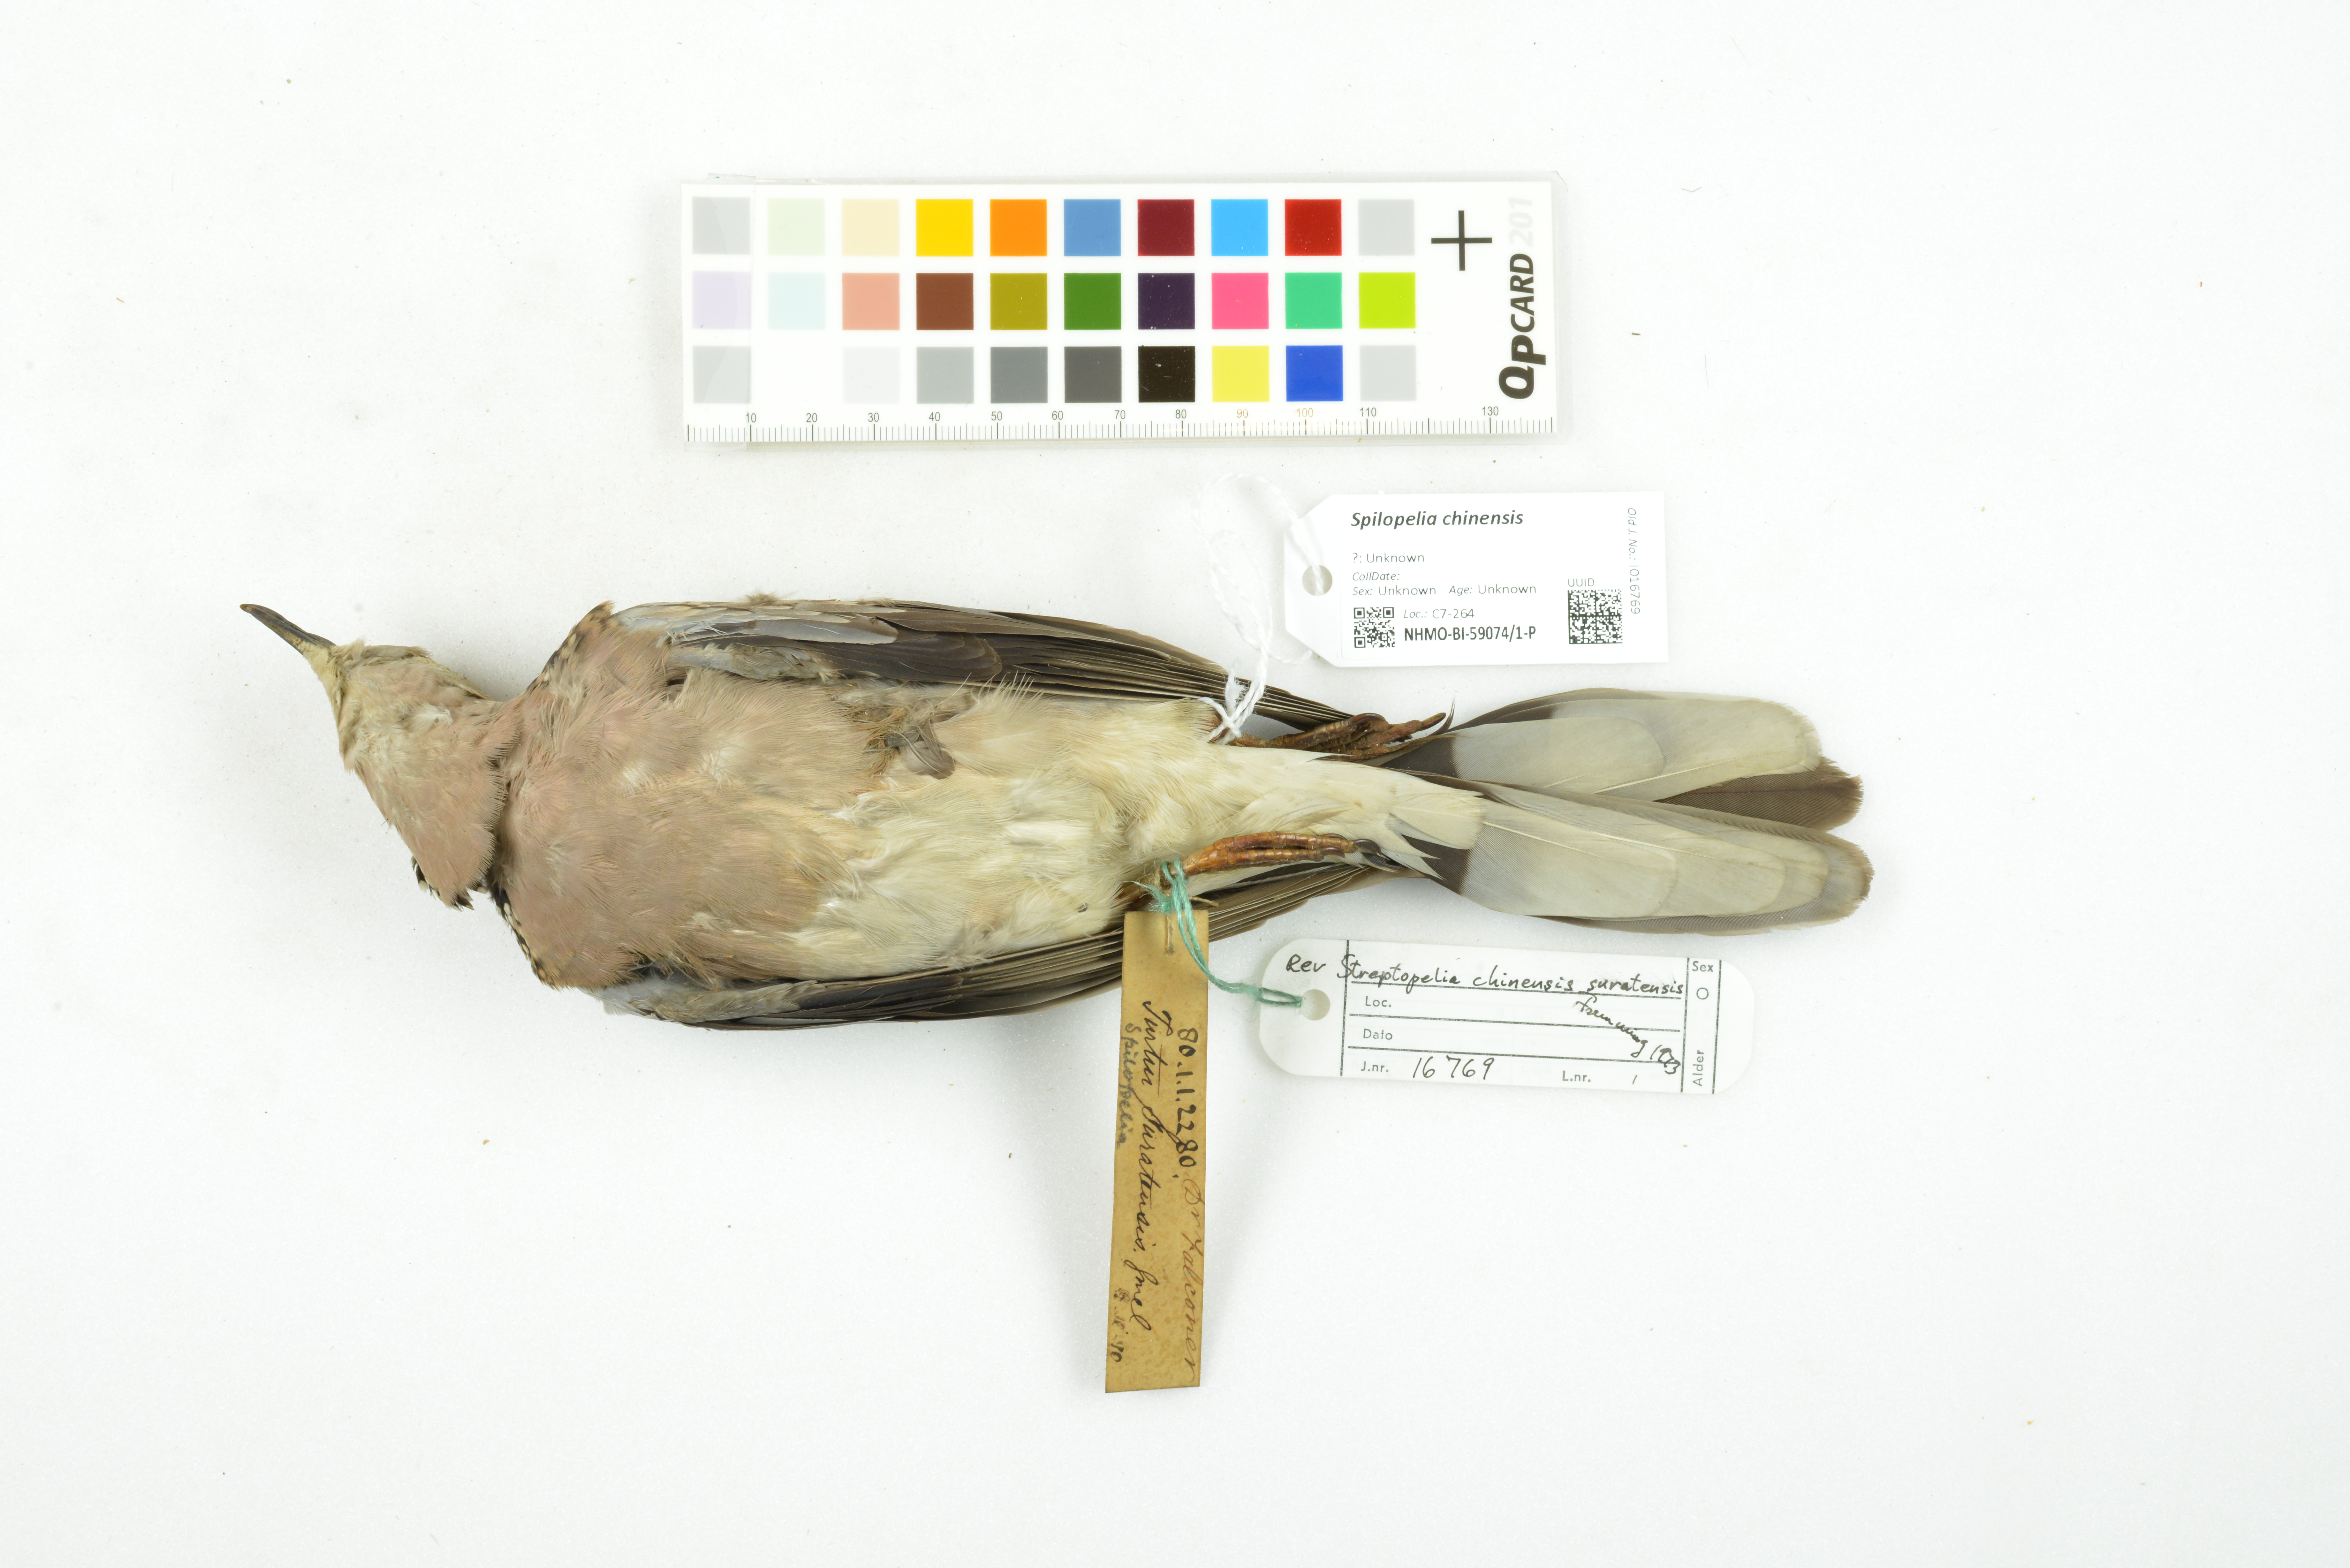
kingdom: Animalia
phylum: Chordata
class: Aves
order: Columbiformes
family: Columbidae
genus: Spilopelia
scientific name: Spilopelia chinensis
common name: Spotted dove
